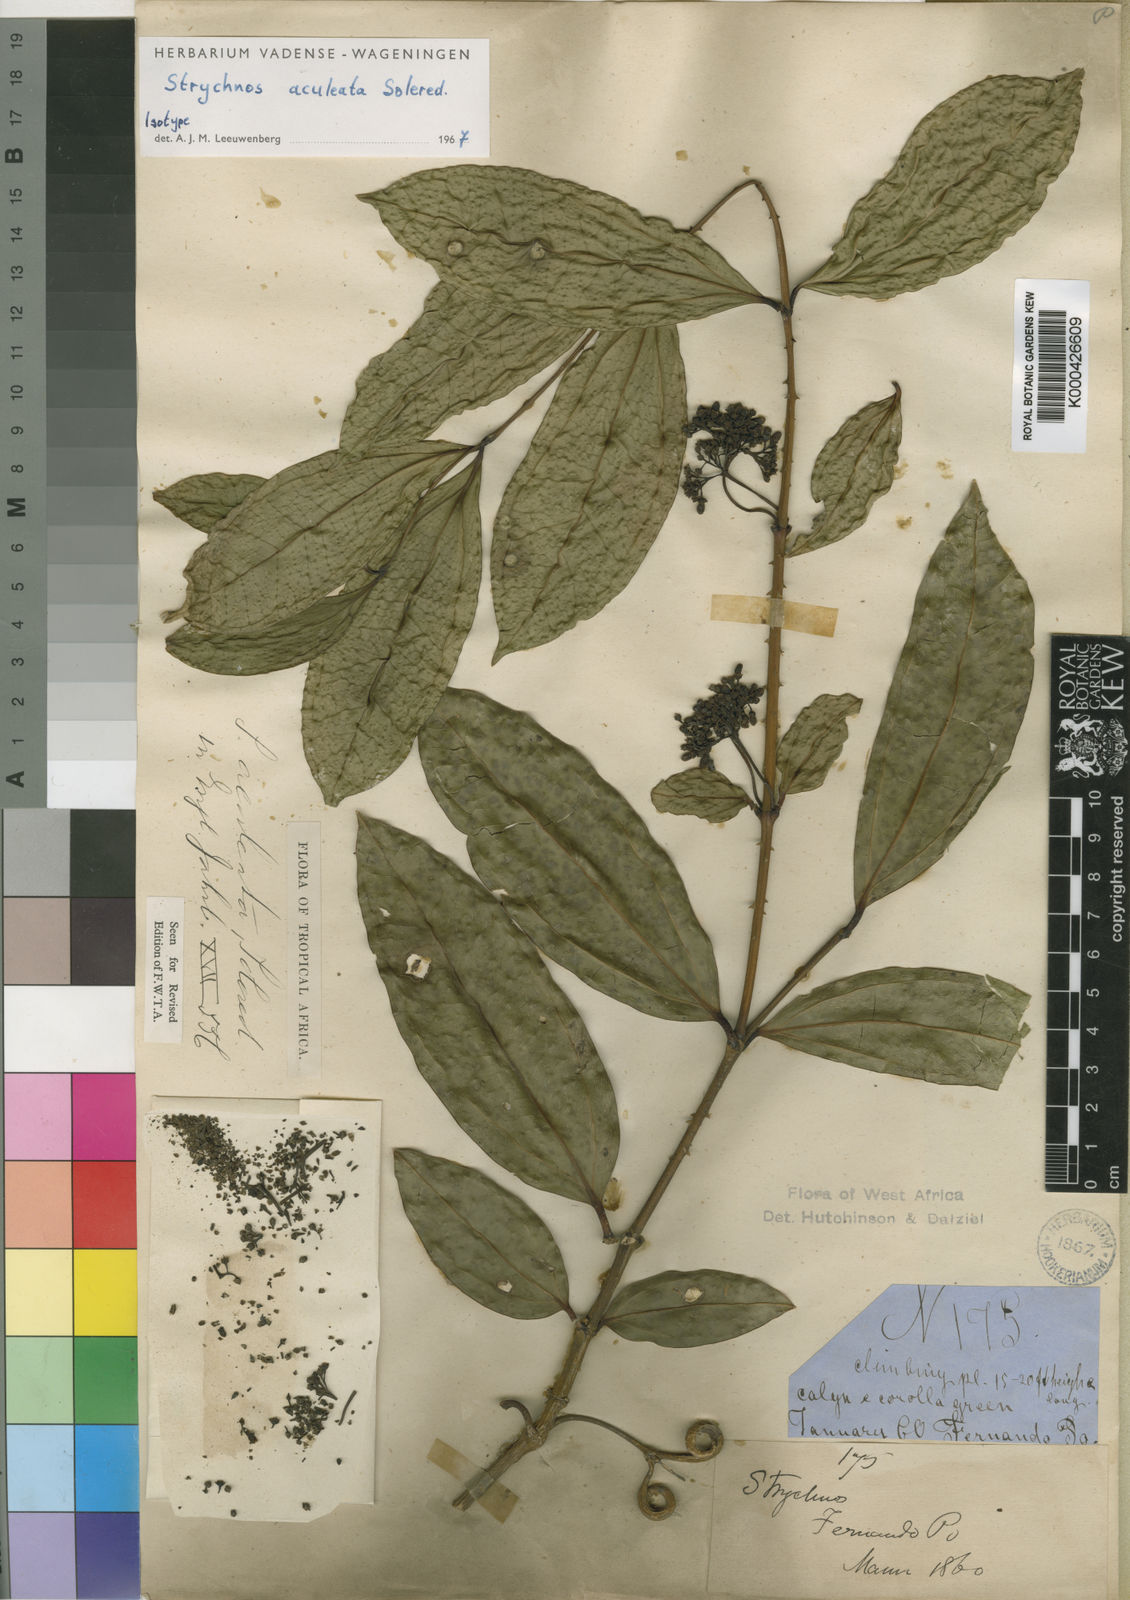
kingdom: Plantae
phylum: Tracheophyta
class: Magnoliopsida
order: Gentianales
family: Loganiaceae
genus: Strychnos
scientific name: Strychnos aculeata
